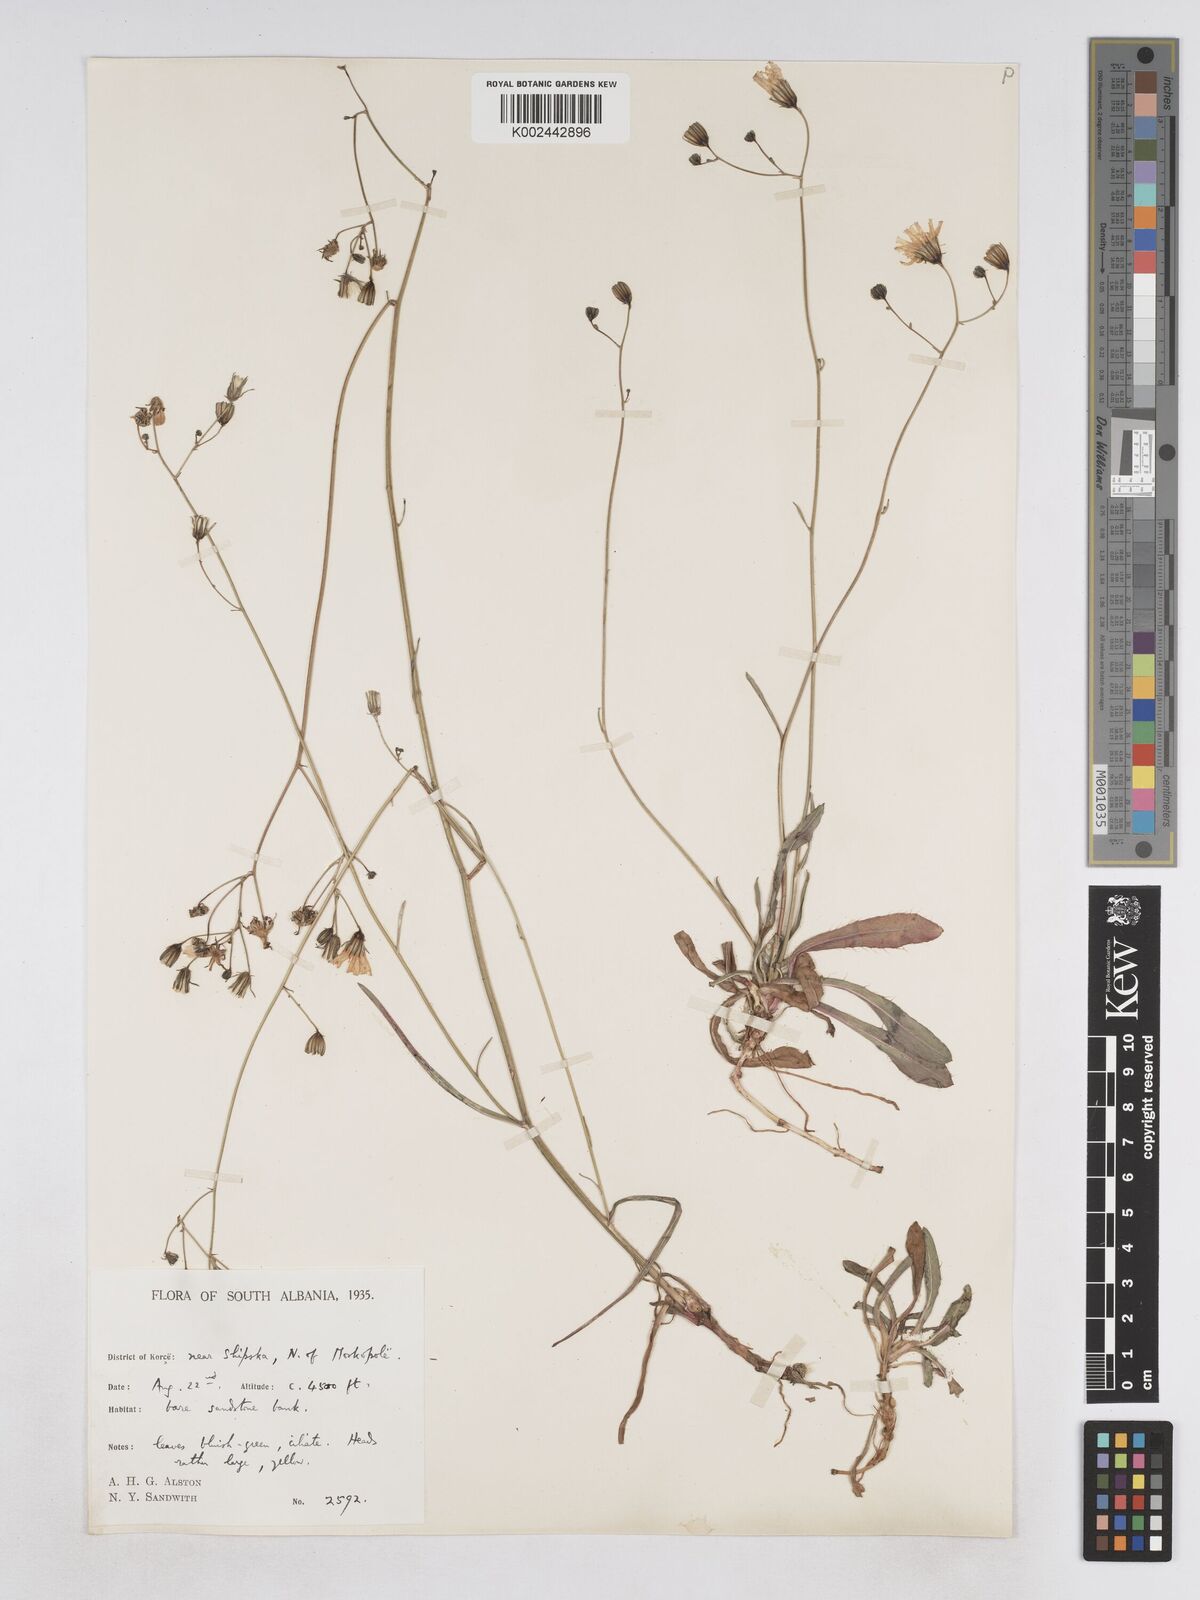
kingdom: Plantae
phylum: Tracheophyta
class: Magnoliopsida
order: Asterales
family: Asteraceae
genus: Pilosella
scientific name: Pilosella pavichii
